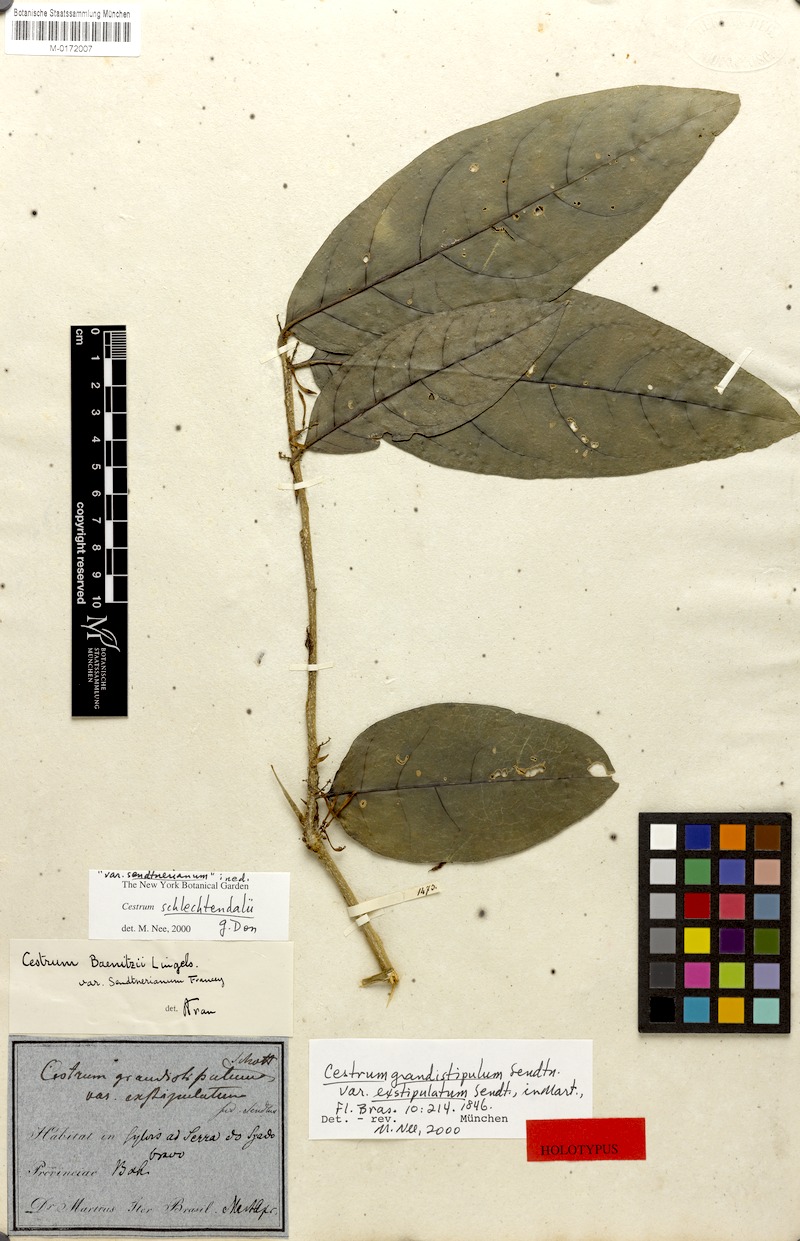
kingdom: Plantae
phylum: Tracheophyta
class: Magnoliopsida
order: Solanales
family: Solanaceae
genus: Cestrum
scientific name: Cestrum schlechtendalii
